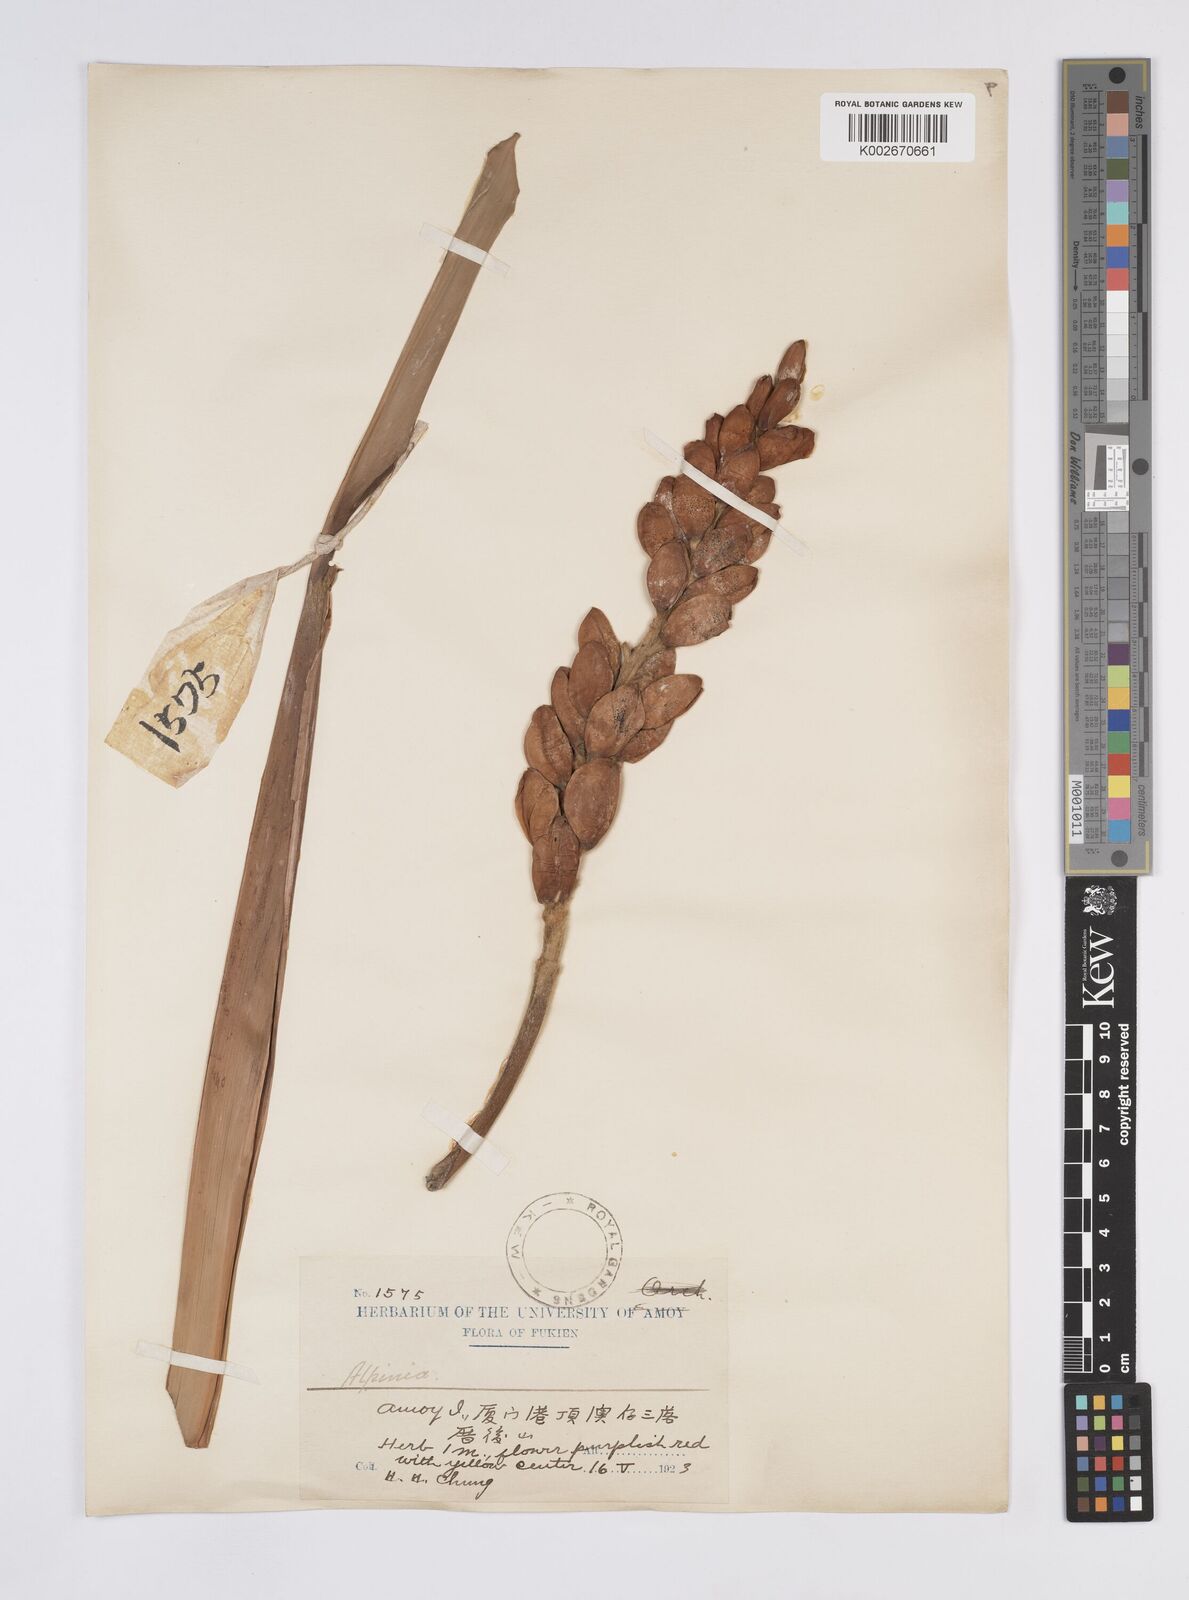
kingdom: Plantae
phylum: Tracheophyta
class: Liliopsida
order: Zingiberales
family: Zingiberaceae
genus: Alpinia
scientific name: Alpinia
